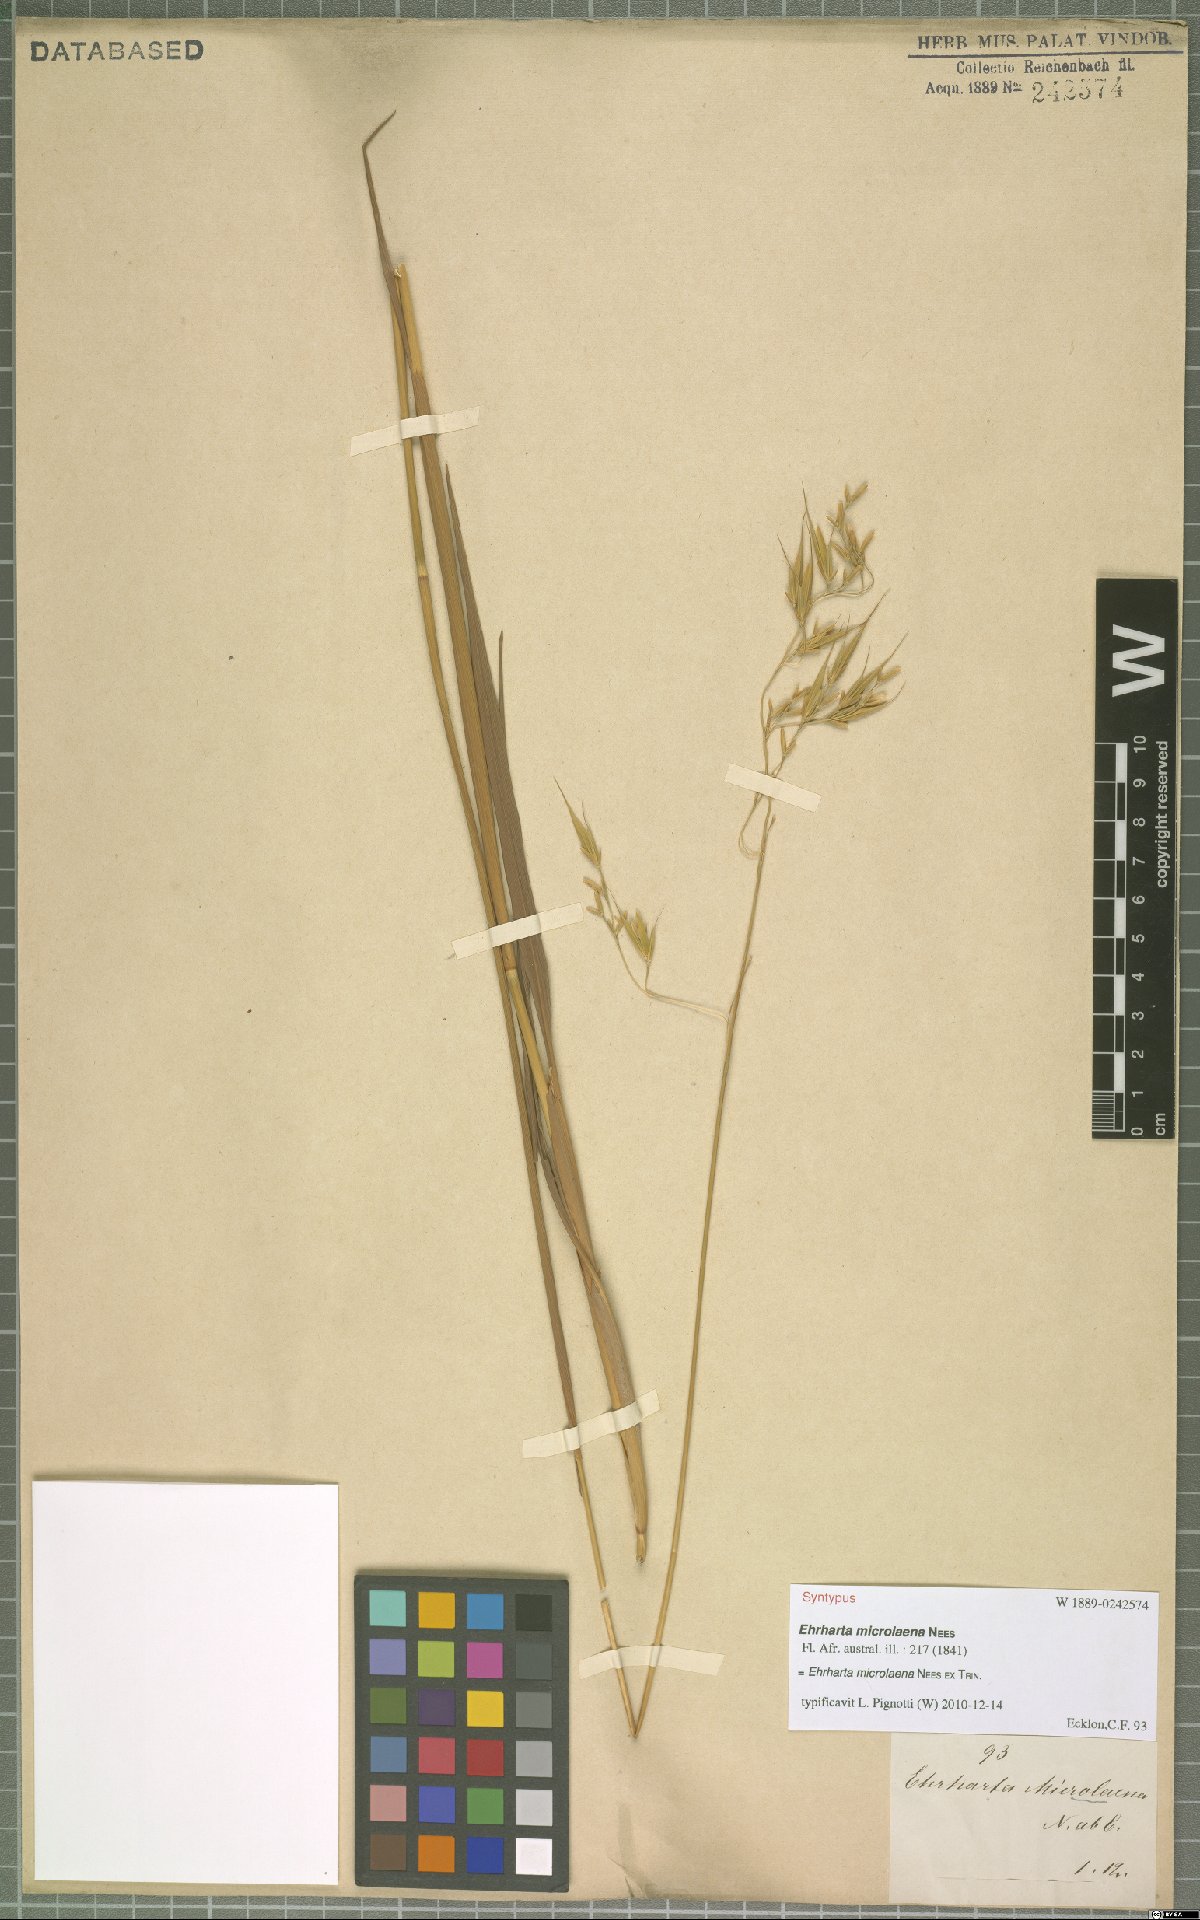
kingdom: Plantae
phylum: Tracheophyta
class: Liliopsida
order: Poales
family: Poaceae
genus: Ehrharta
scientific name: Ehrharta microlaena
